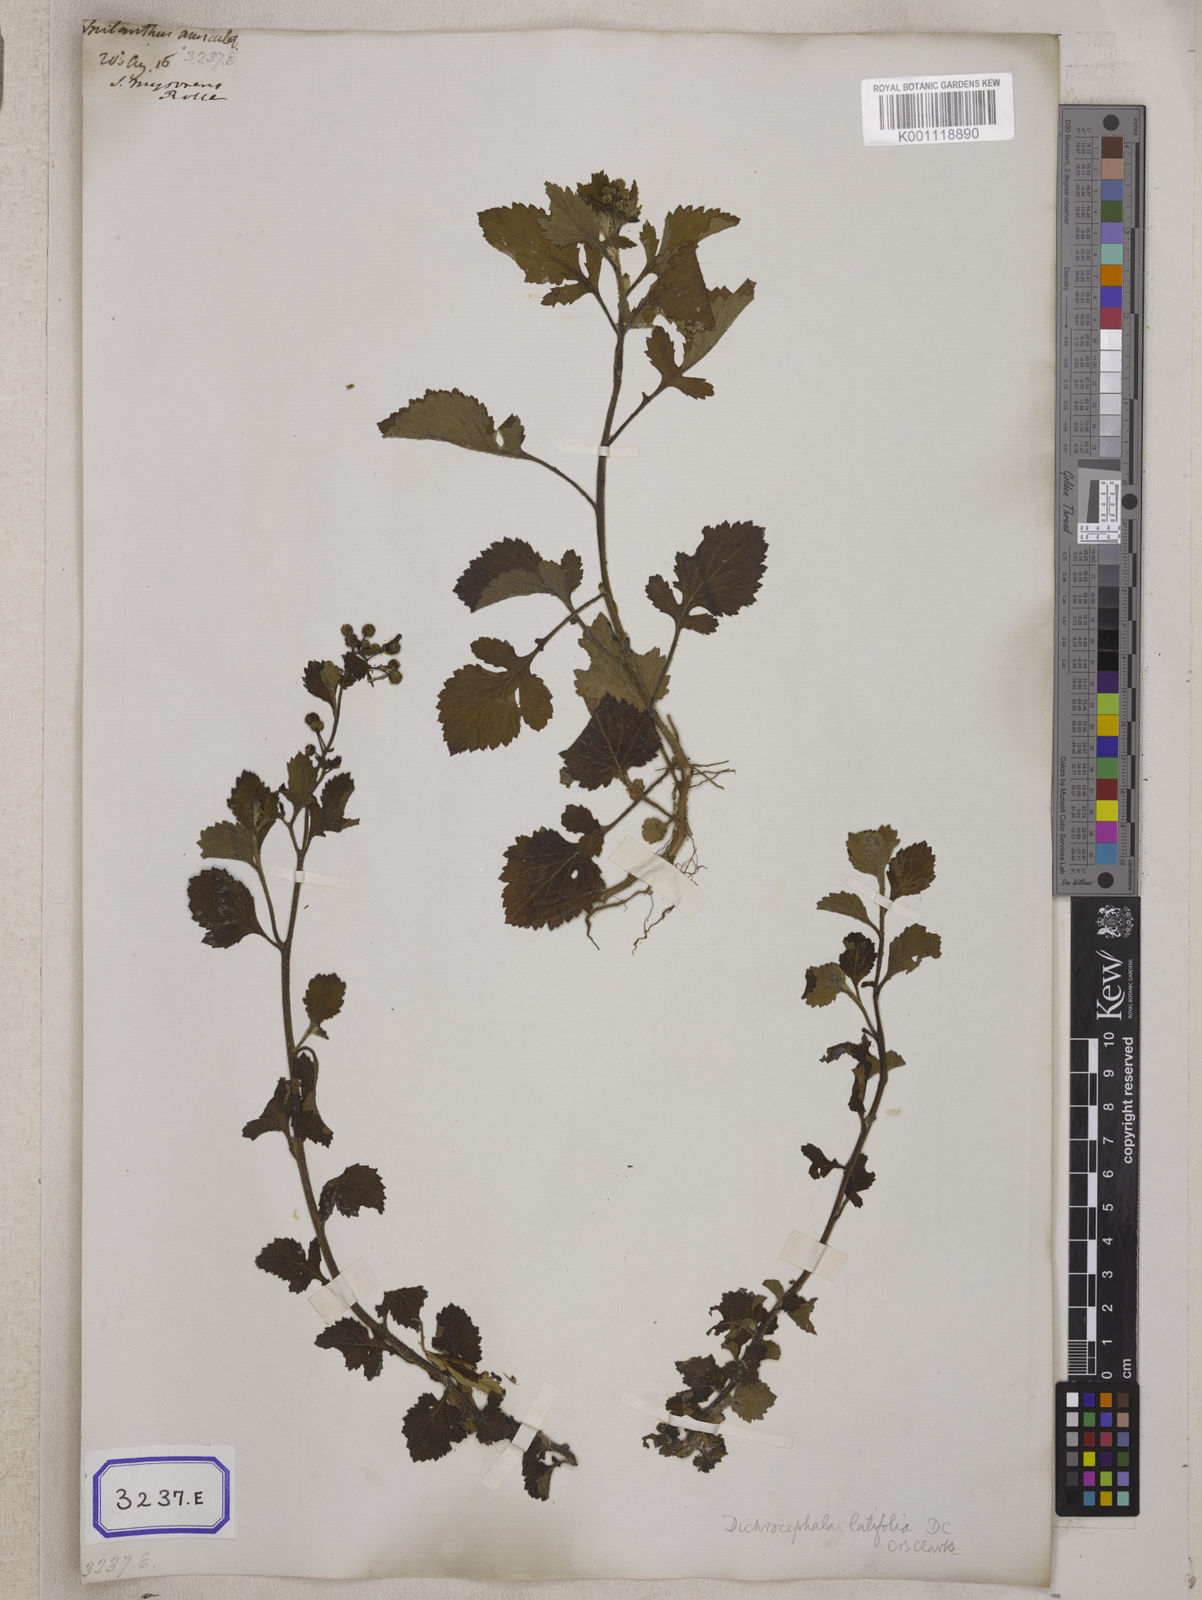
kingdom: Plantae
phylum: Tracheophyta
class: Magnoliopsida
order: Asterales
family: Asteraceae
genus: Thespis
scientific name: Thespis divaricata
